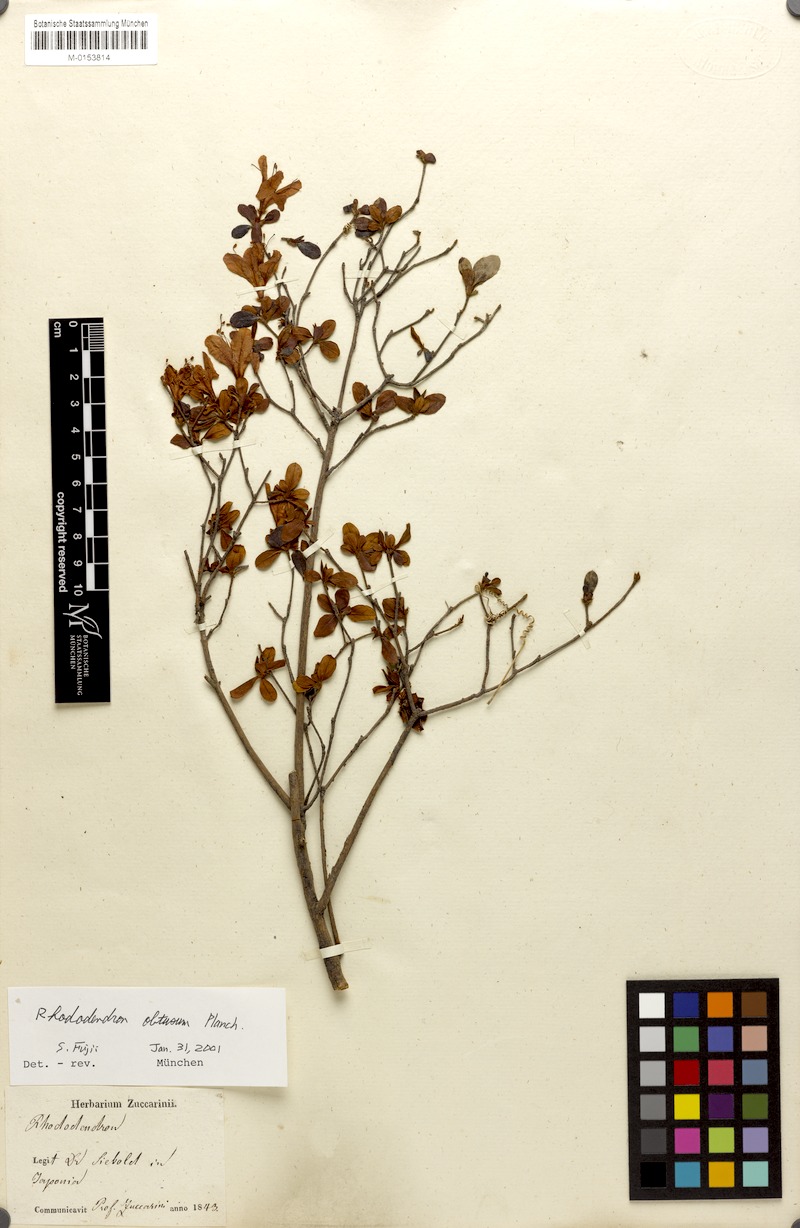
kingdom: Plantae
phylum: Tracheophyta
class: Magnoliopsida
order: Ericales
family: Ericaceae
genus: Rhododendron
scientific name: Rhododendron indicum
